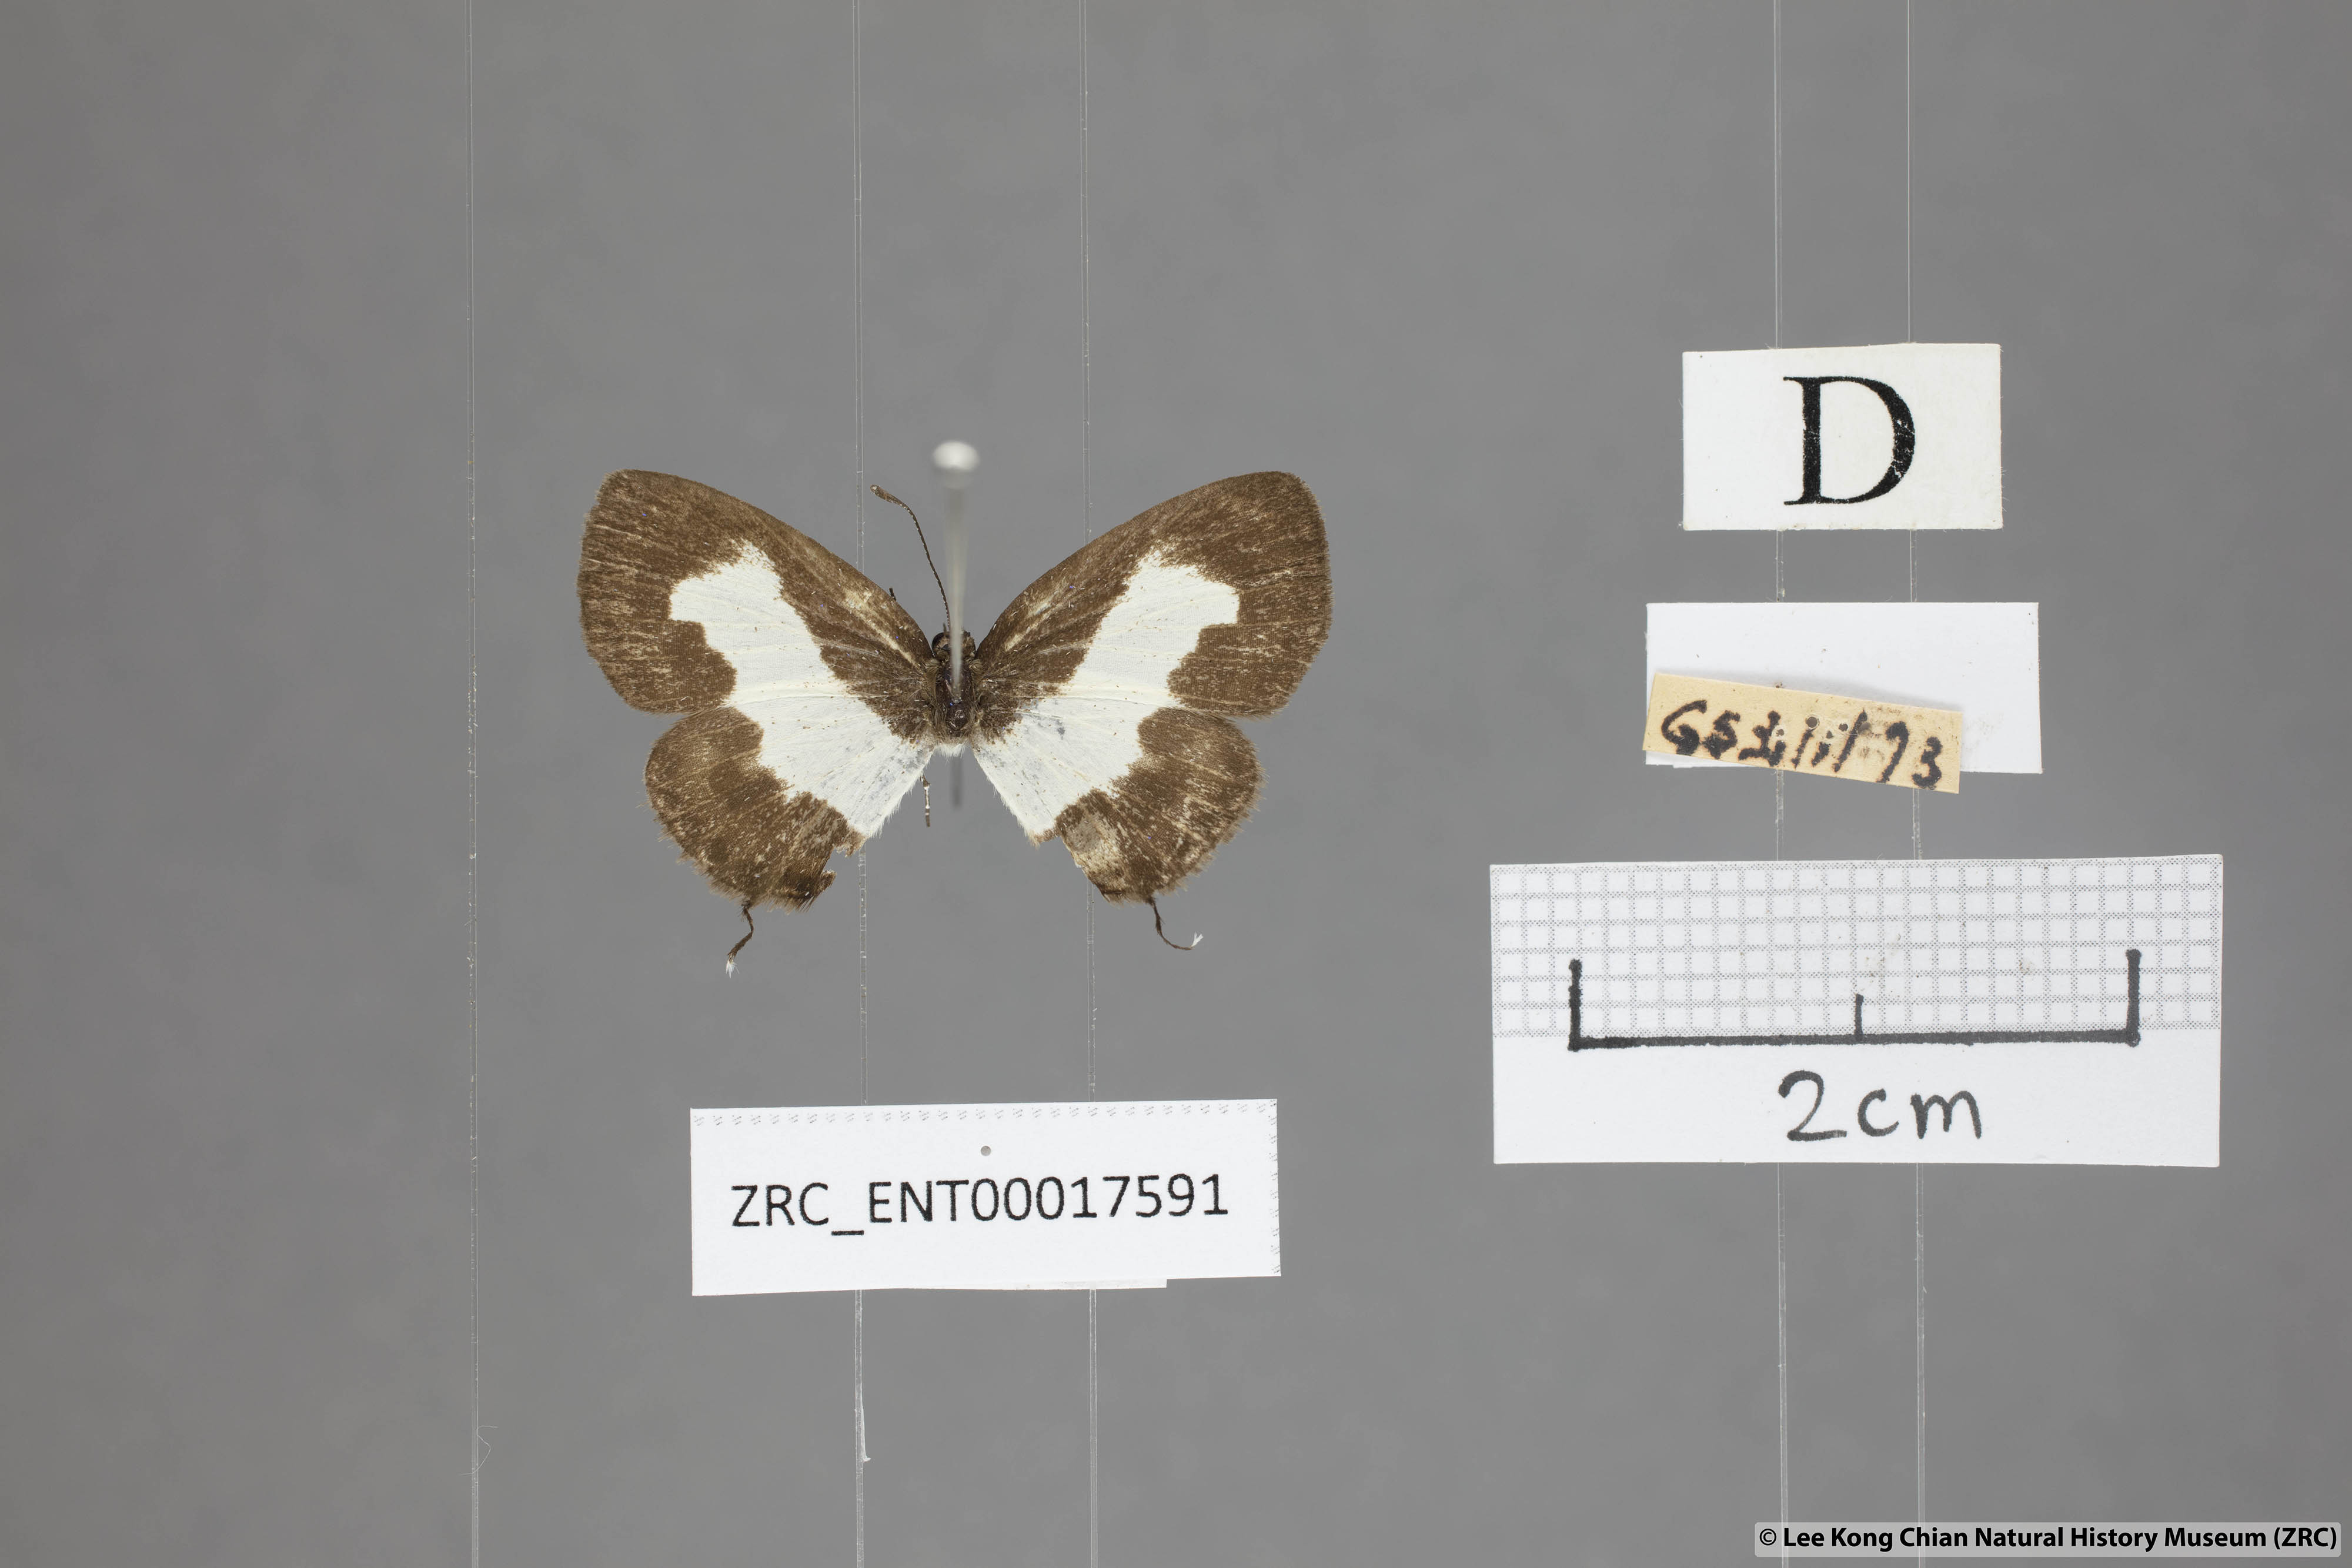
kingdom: Animalia
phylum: Arthropoda
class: Insecta
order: Lepidoptera
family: Lycaenidae
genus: Caleta
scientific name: Caleta roxus
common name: Straight pierrot
